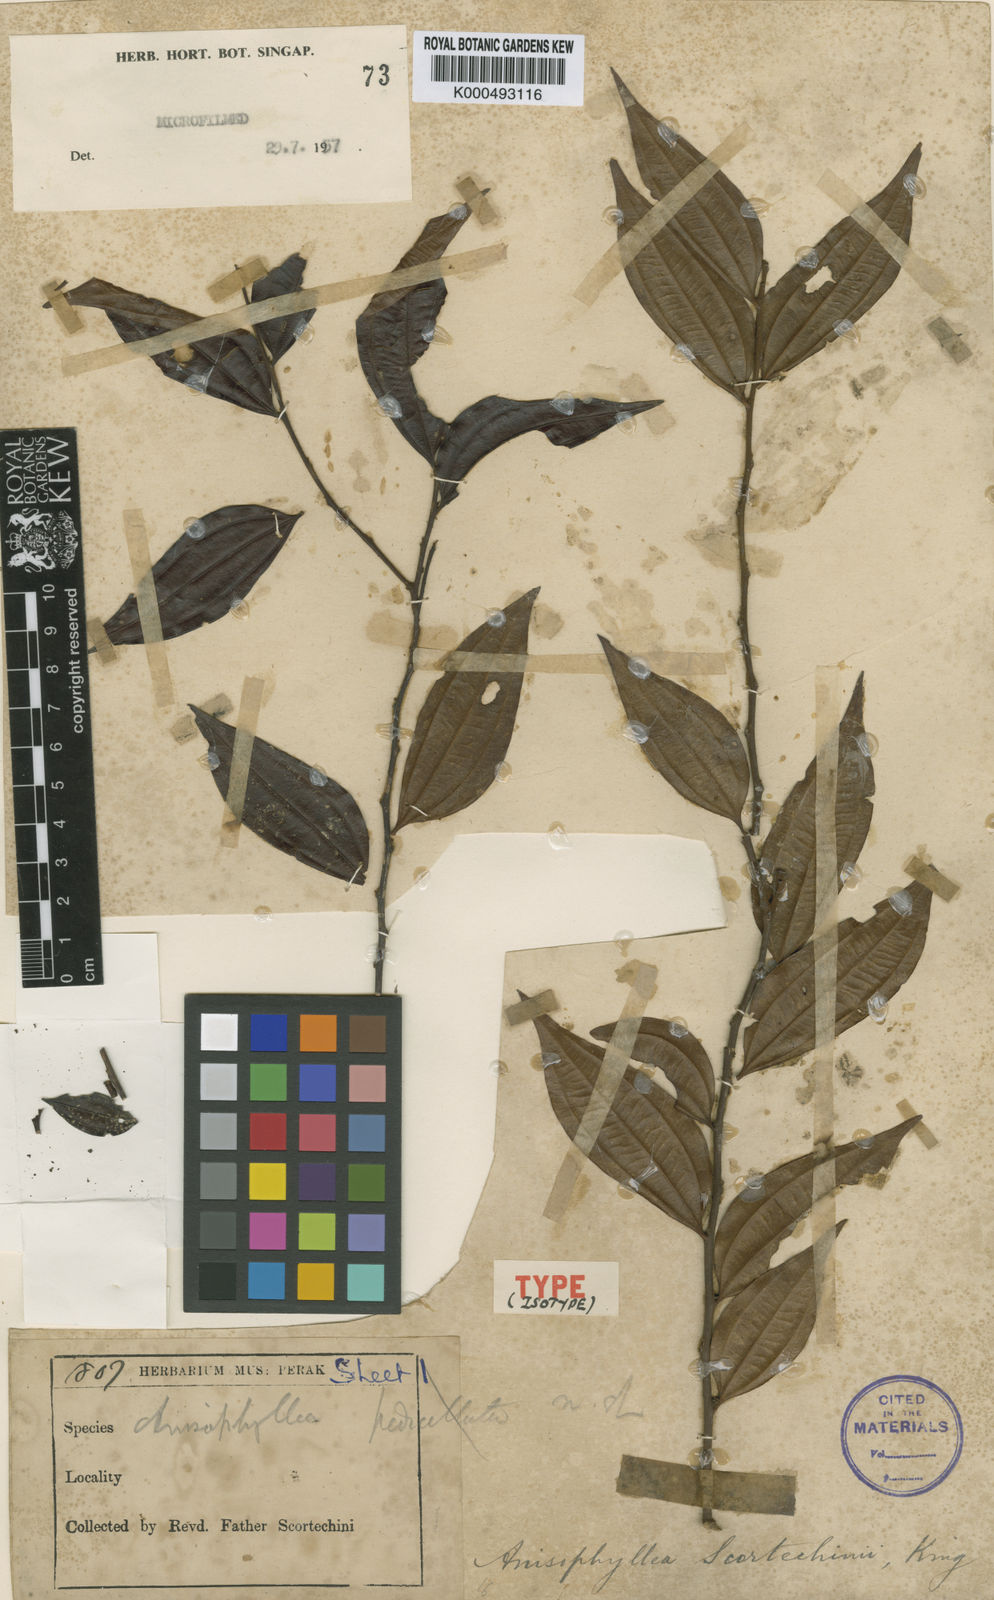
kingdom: Plantae
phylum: Tracheophyta
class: Magnoliopsida
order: Cucurbitales
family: Anisophylleaceae
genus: Anisophyllea
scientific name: Anisophyllea scortechinii
